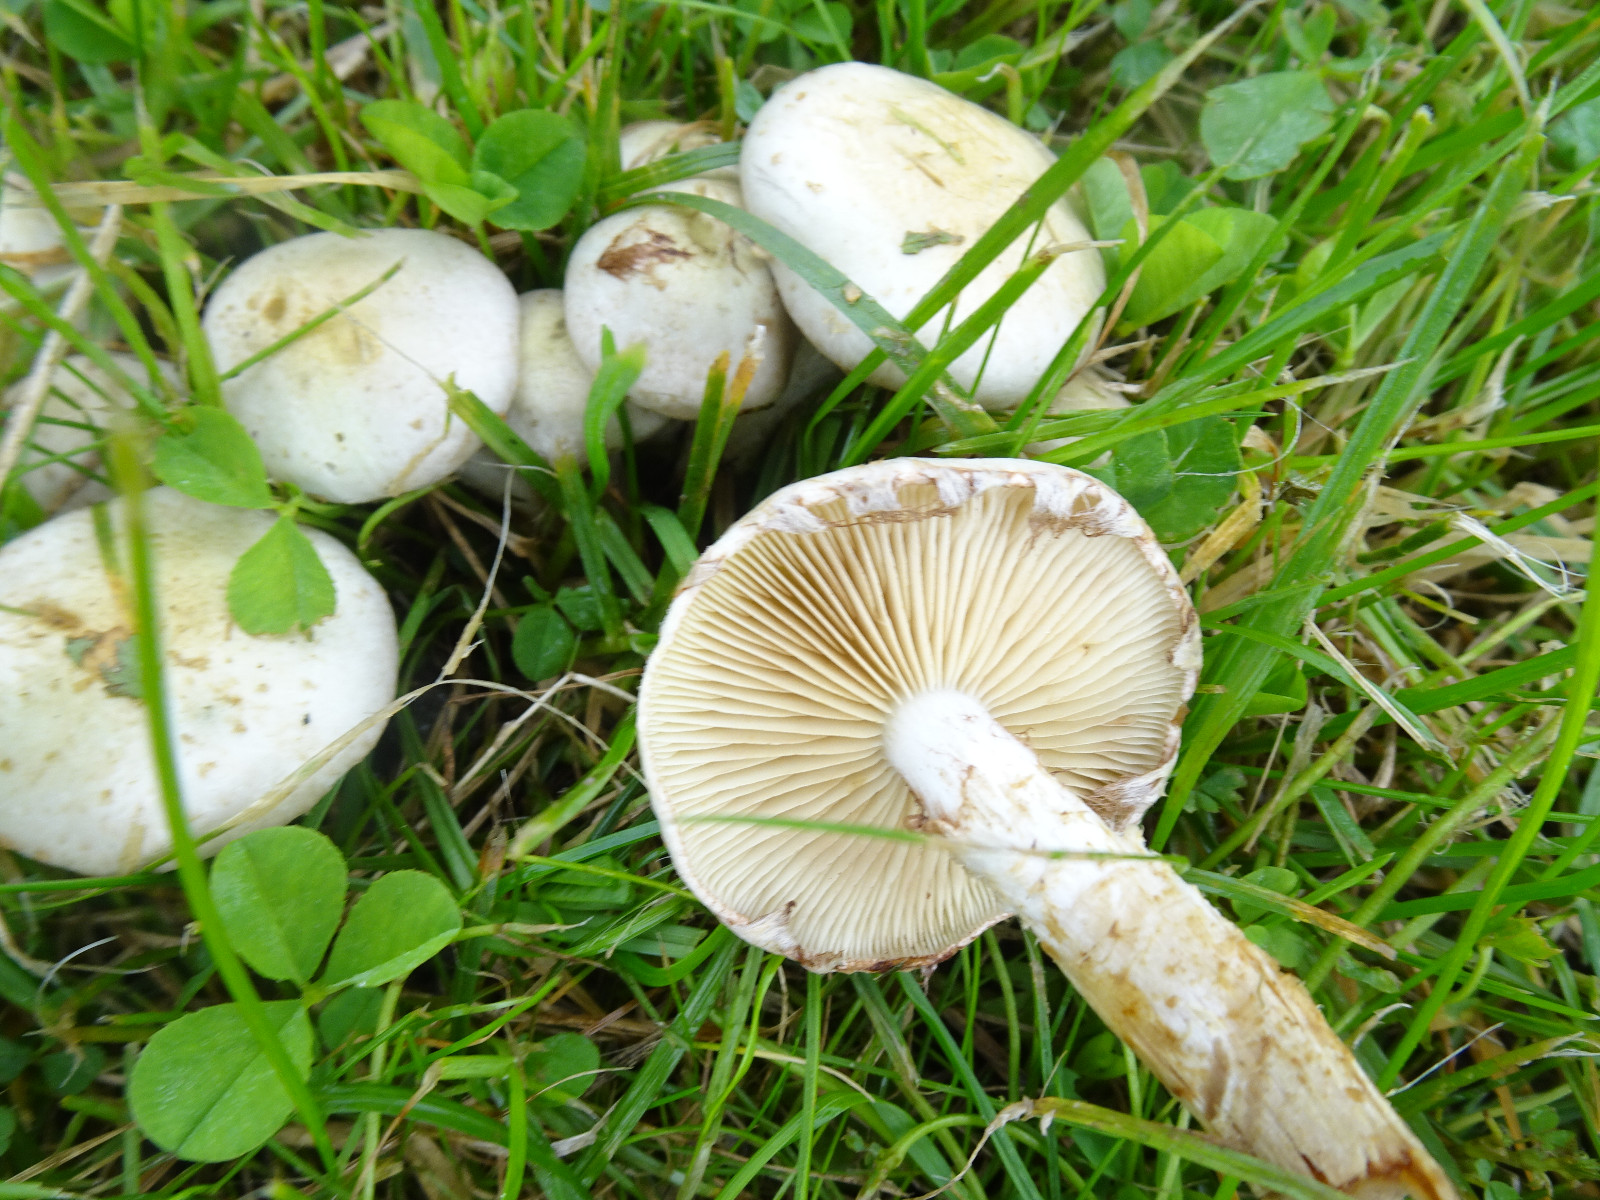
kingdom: Fungi
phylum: Basidiomycota
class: Agaricomycetes
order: Agaricales
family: Strophariaceae
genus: Pholiota
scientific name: Pholiota gummosa
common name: grøngul skælhat
